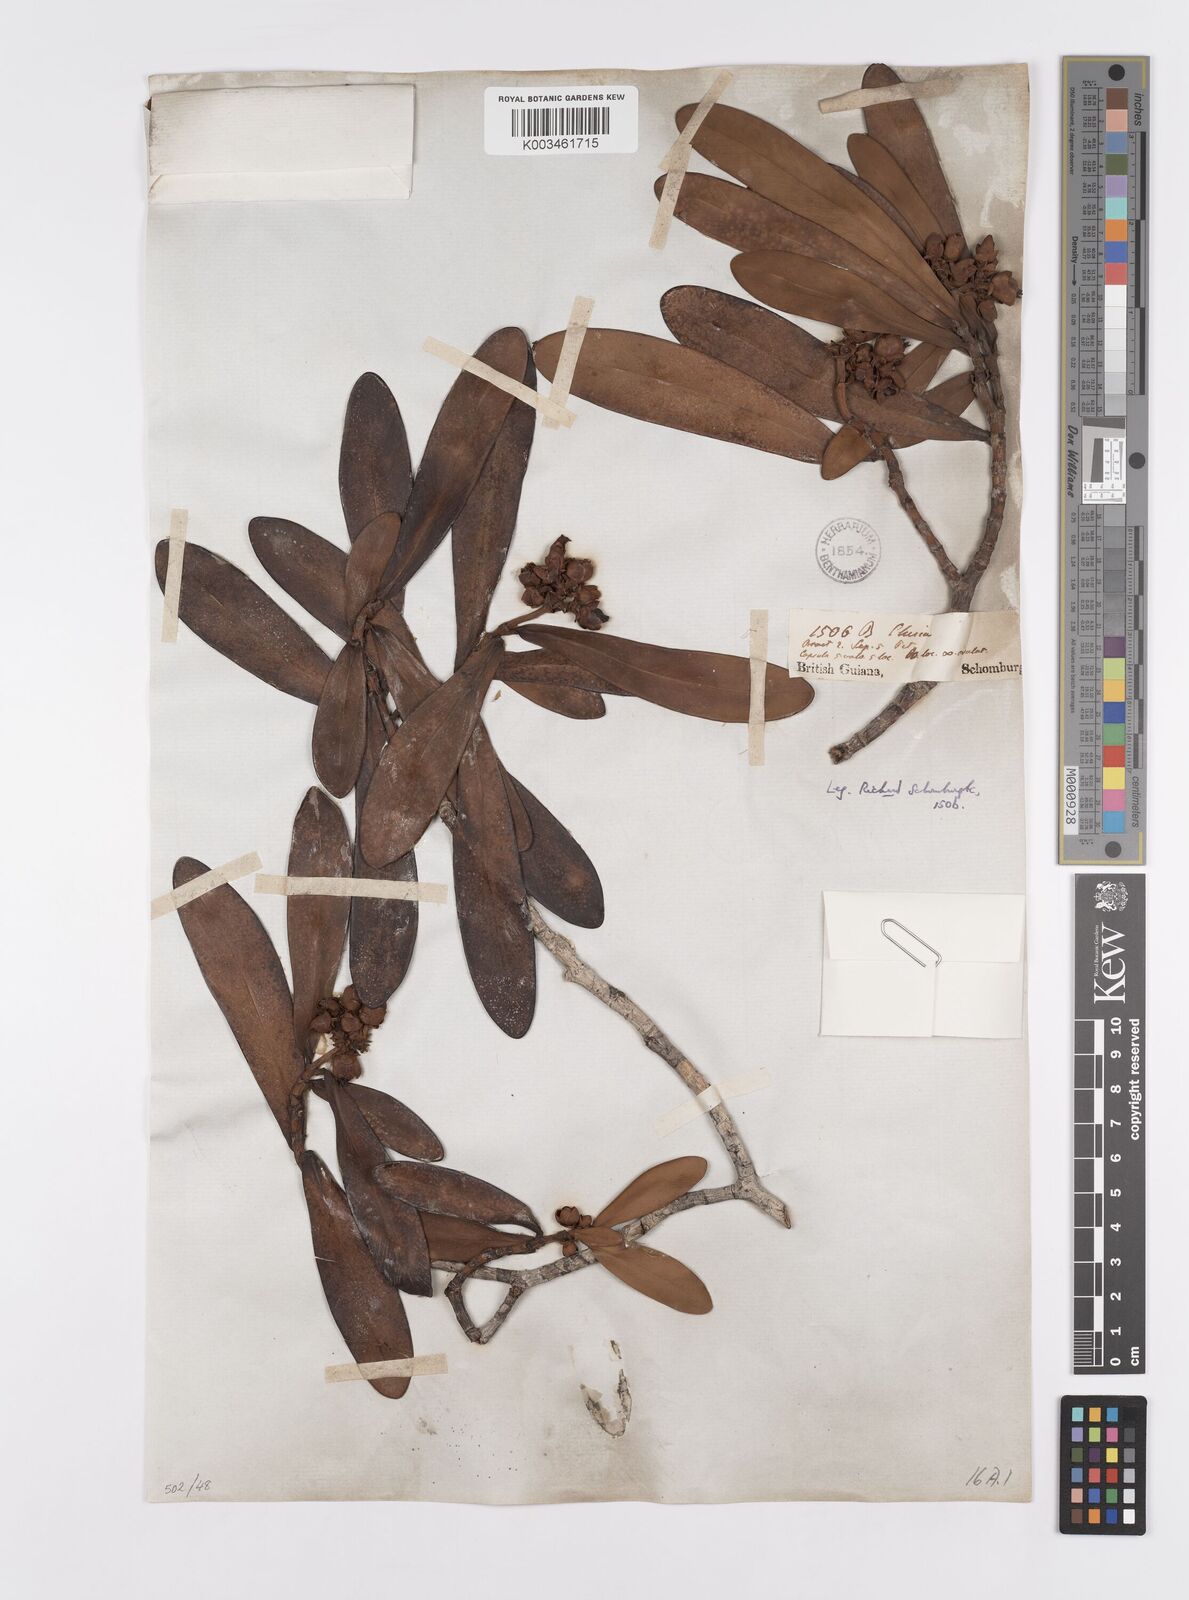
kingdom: Plantae
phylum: Tracheophyta
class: Magnoliopsida
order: Malpighiales
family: Clusiaceae
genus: Clusia
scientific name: Clusia myriandra
